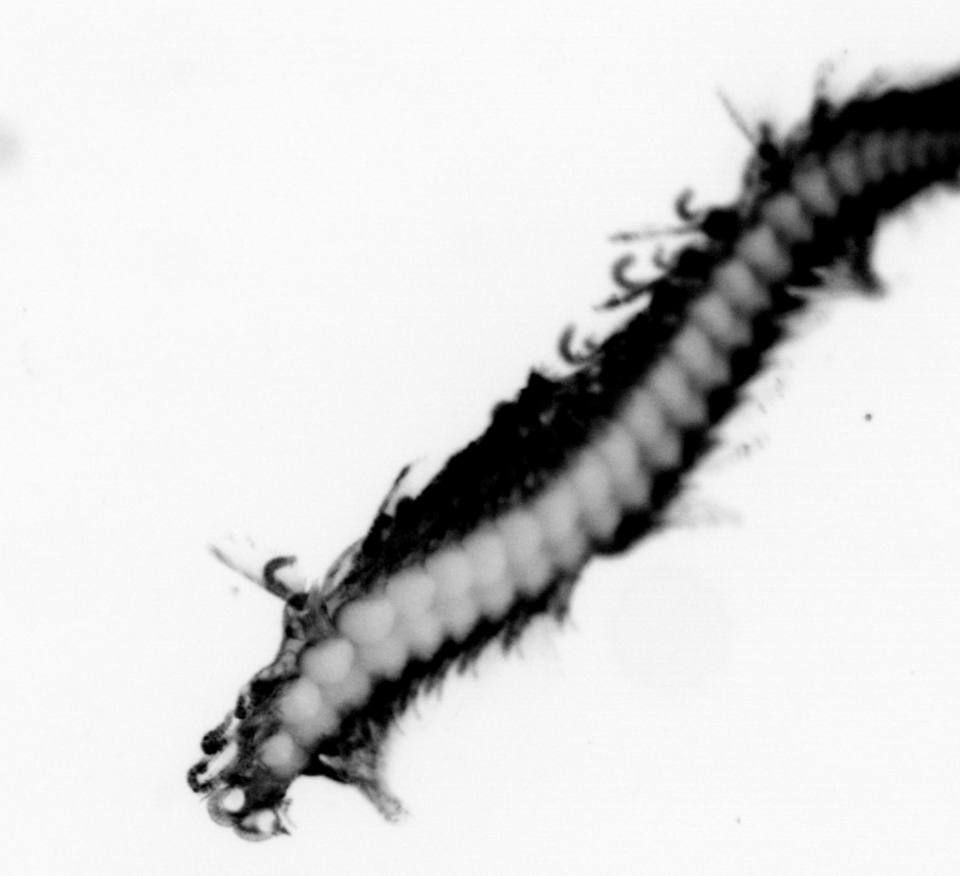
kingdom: Animalia
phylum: Annelida
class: Polychaeta
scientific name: Polychaeta
